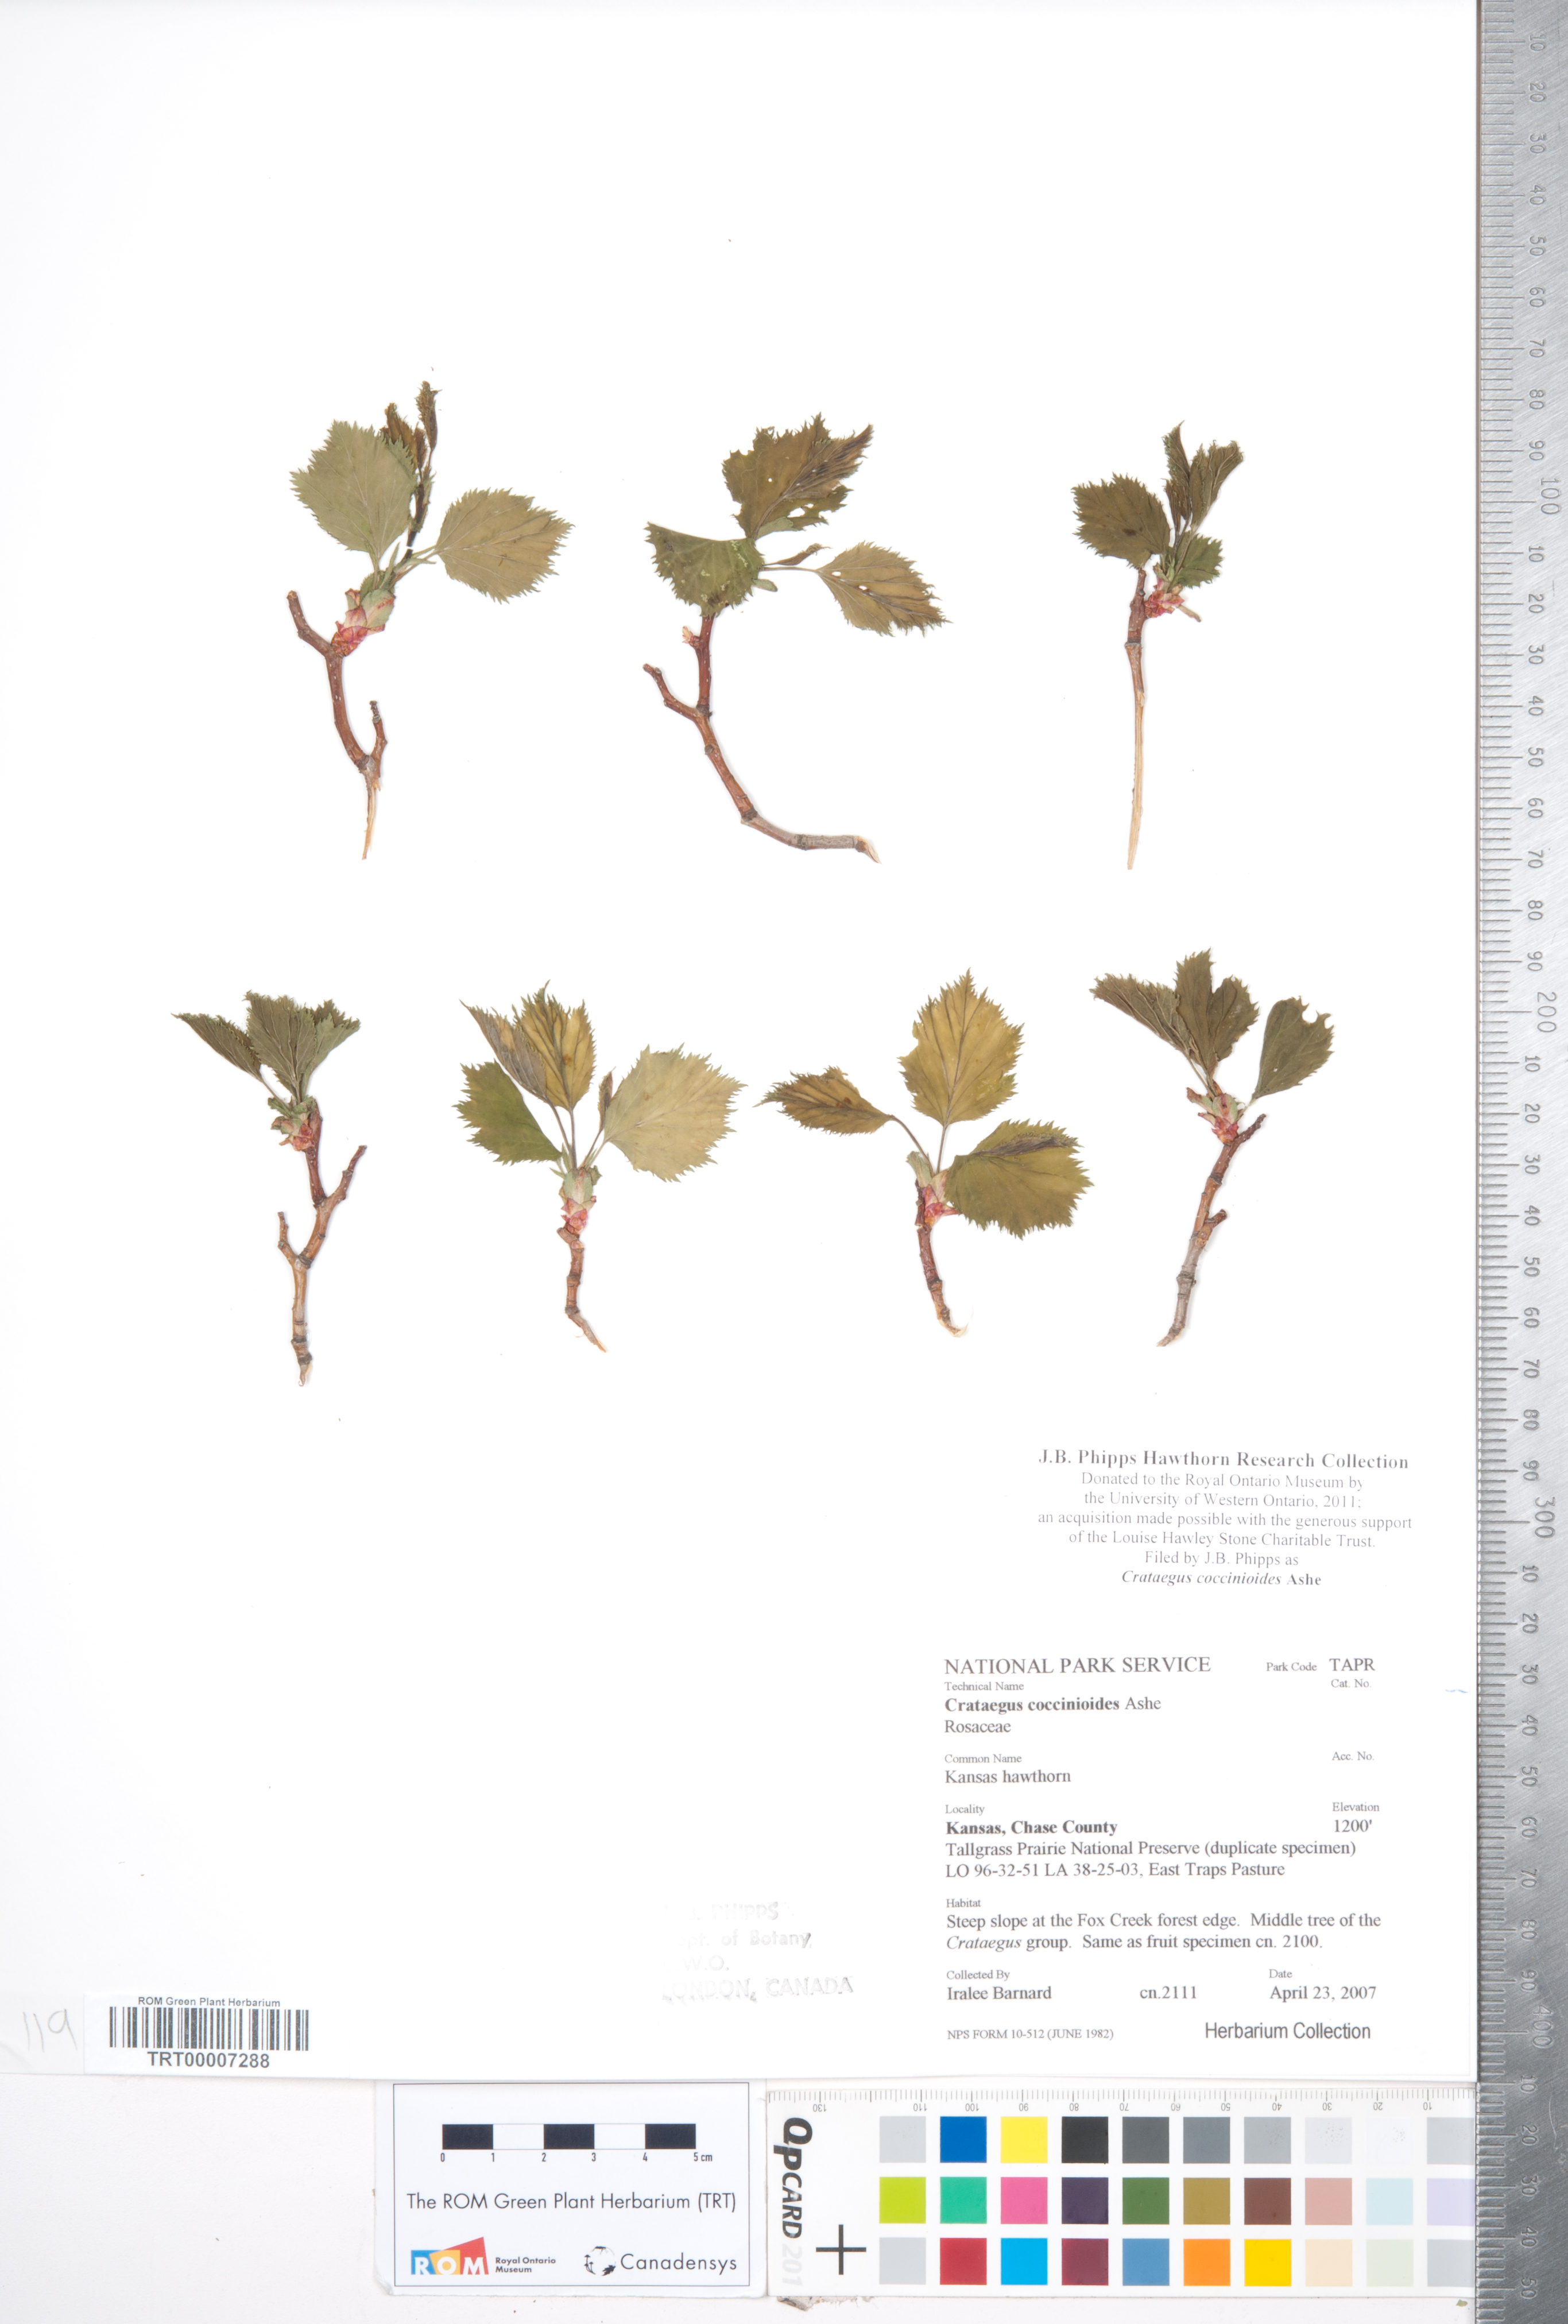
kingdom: Plantae
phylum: Tracheophyta
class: Magnoliopsida
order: Rosales
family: Rosaceae
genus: Crataegus
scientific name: Crataegus coccinioides
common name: Large-flowered cockspurthorn
